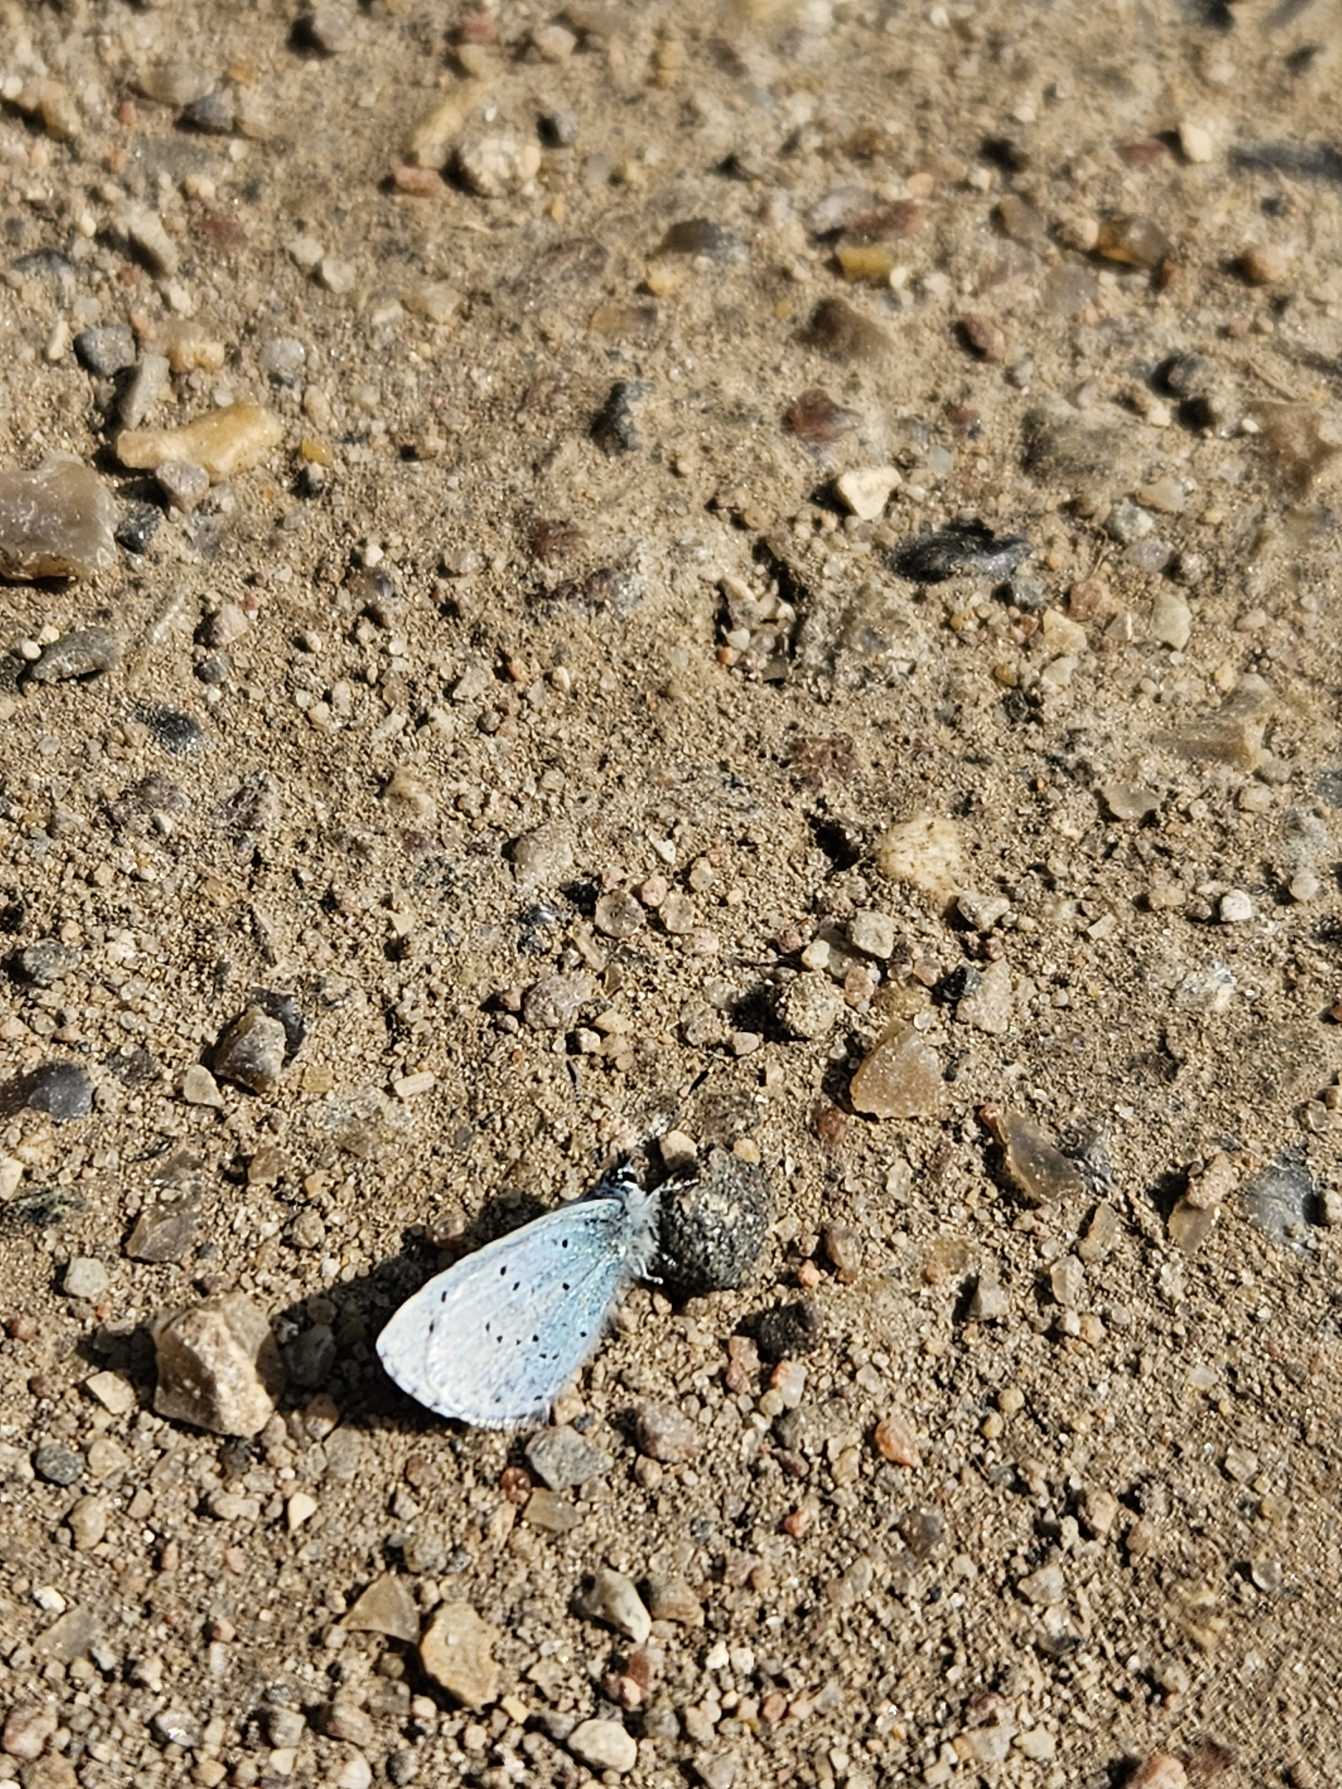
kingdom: Animalia
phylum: Arthropoda
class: Insecta
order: Lepidoptera
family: Lycaenidae
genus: Celastrina
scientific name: Celastrina argiolus
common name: Skovblåfugl
